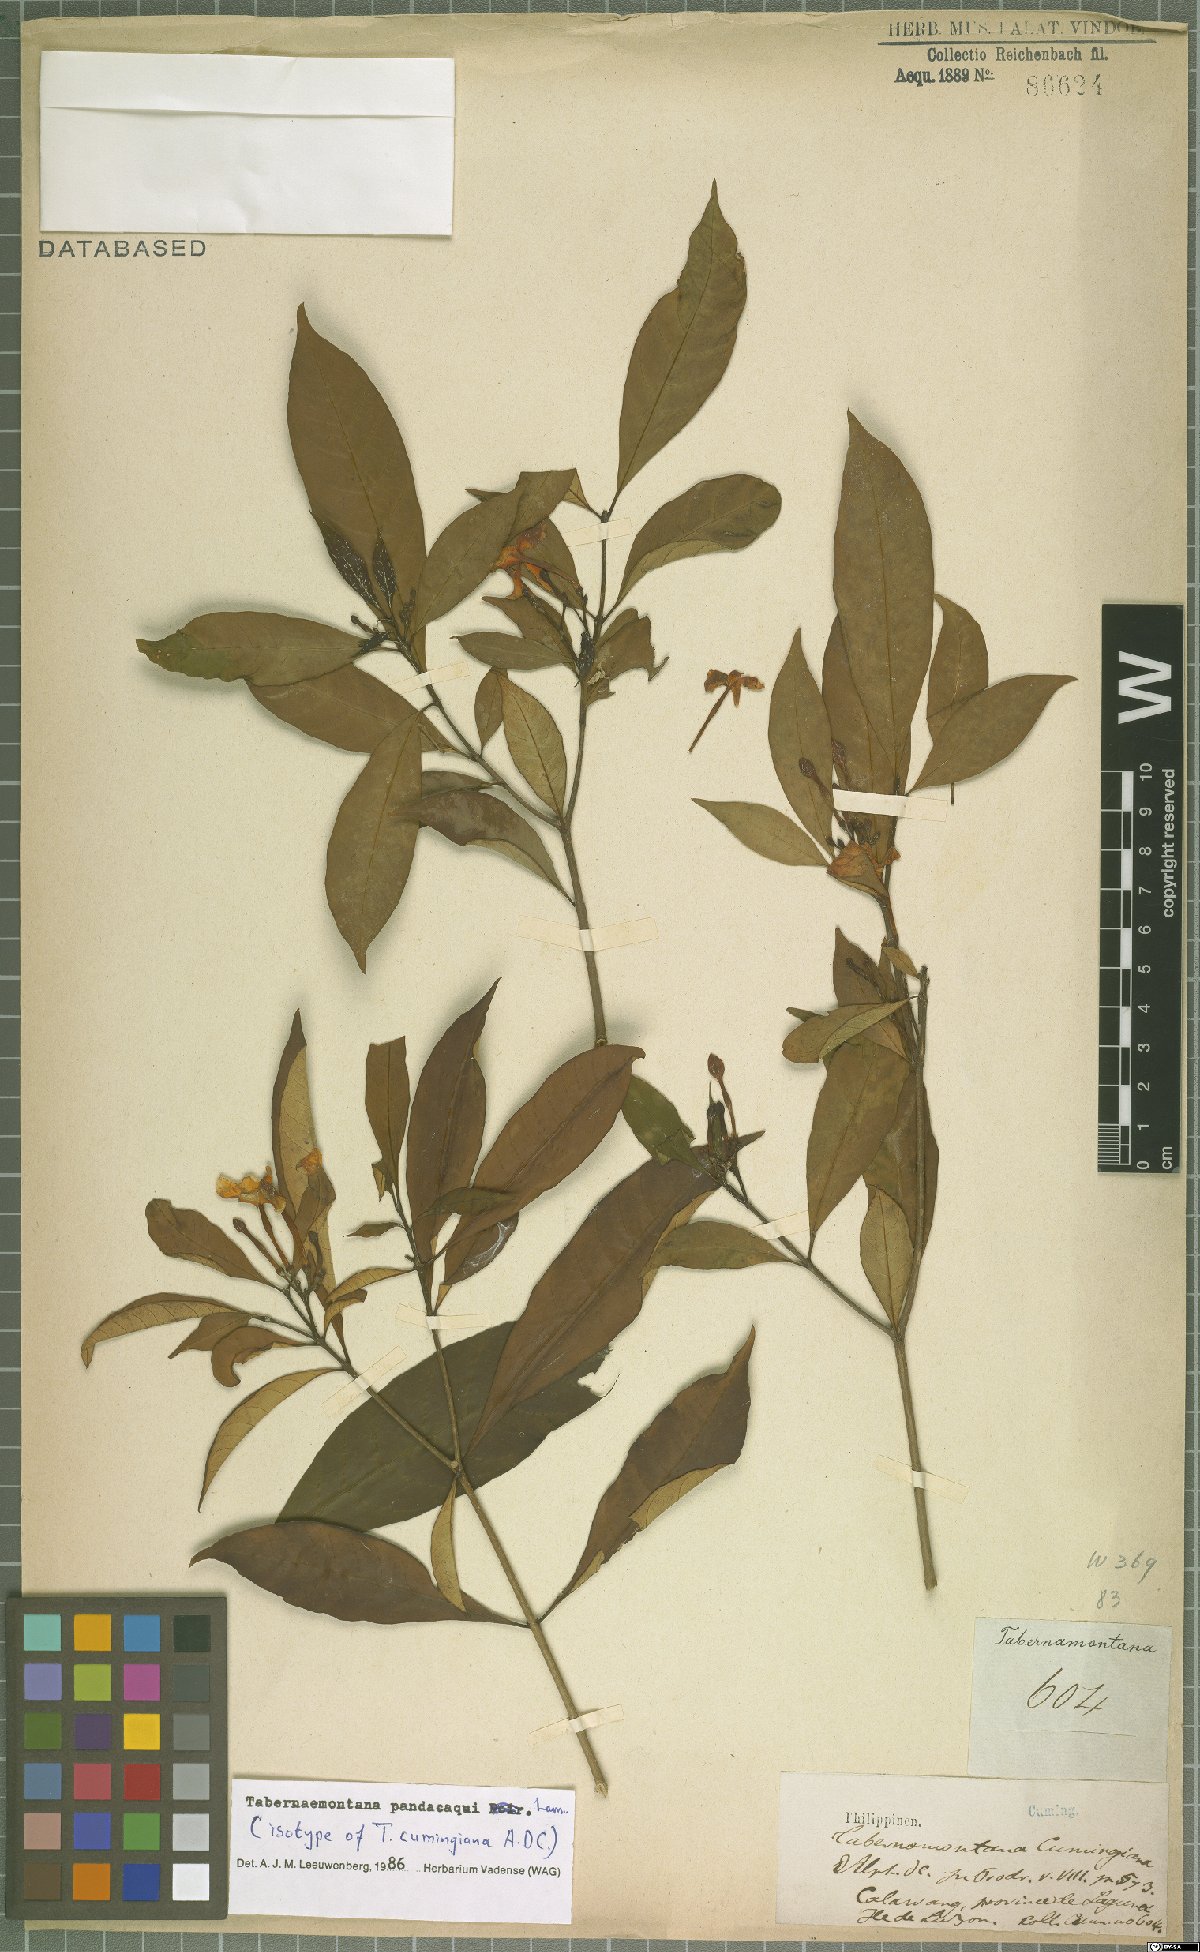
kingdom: Plantae
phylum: Tracheophyta
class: Magnoliopsida
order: Gentianales
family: Apocynaceae
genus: Tabernaemontana
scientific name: Tabernaemontana pandacaqui
